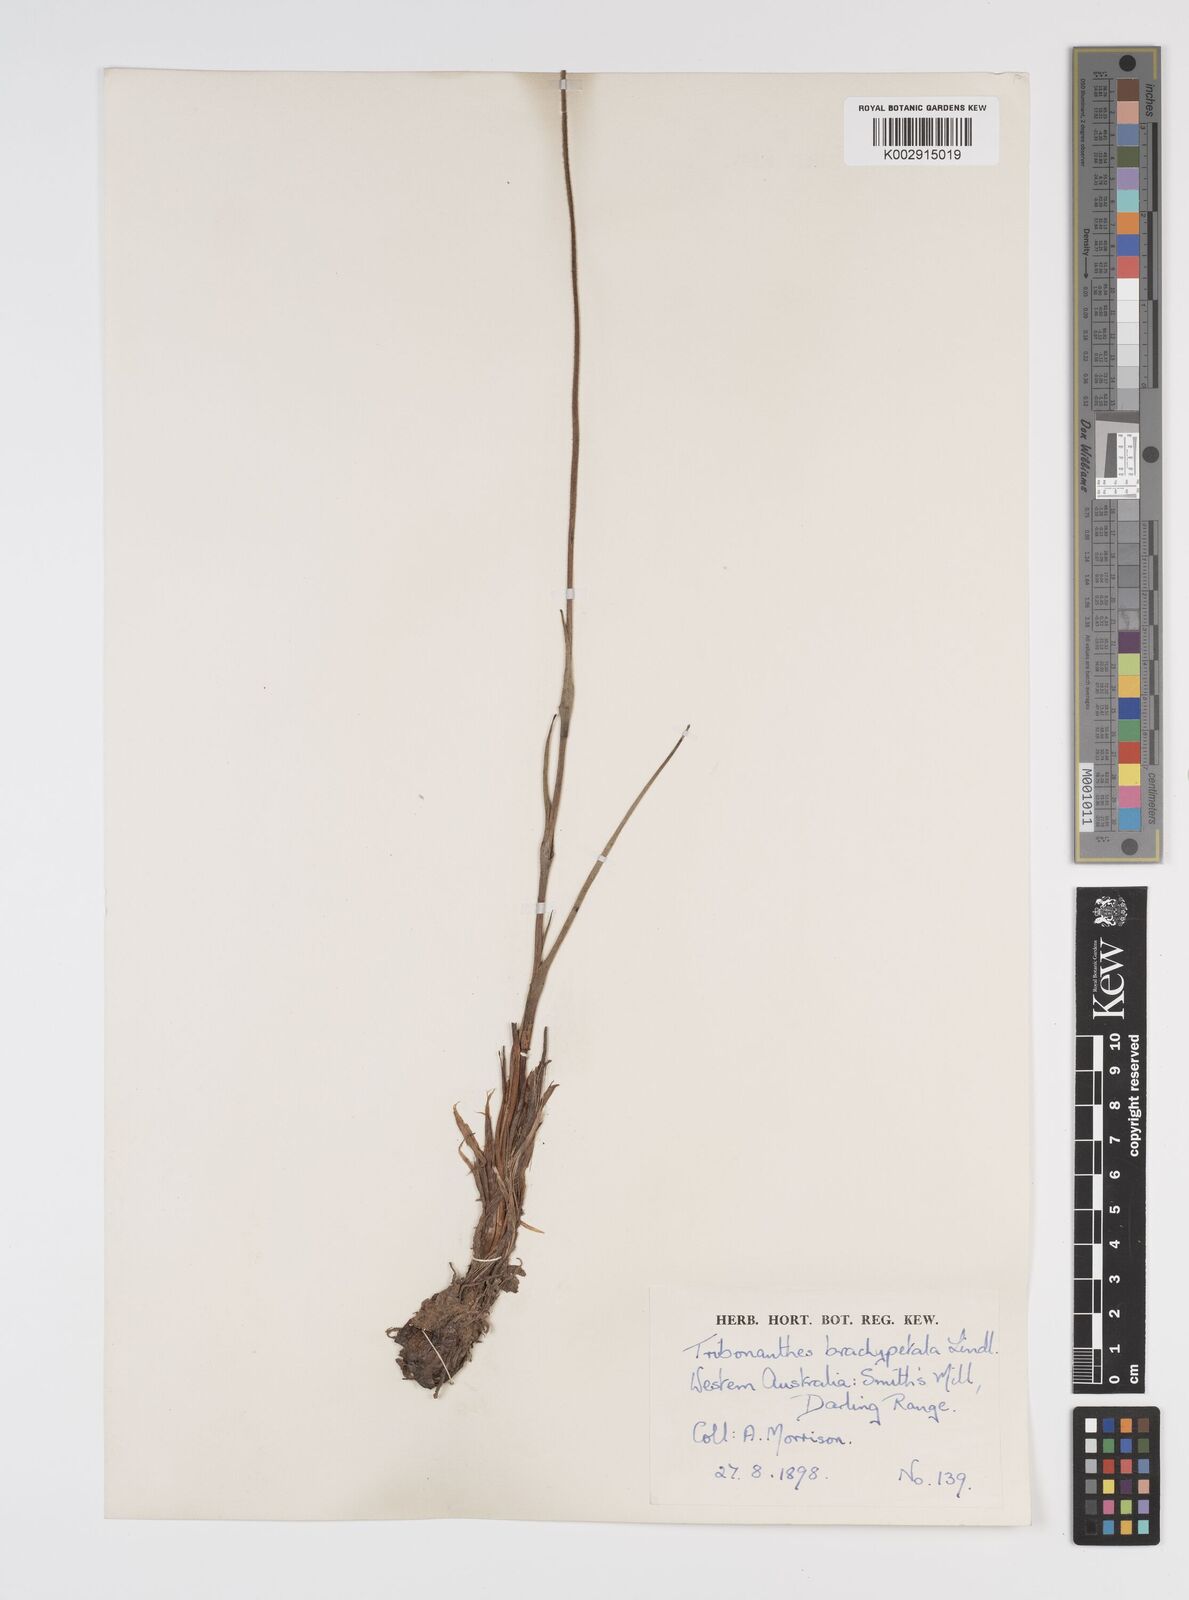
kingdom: Plantae
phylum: Tracheophyta
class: Liliopsida
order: Commelinales
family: Haemodoraceae
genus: Tribonanthes
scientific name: Tribonanthes brachypetala
